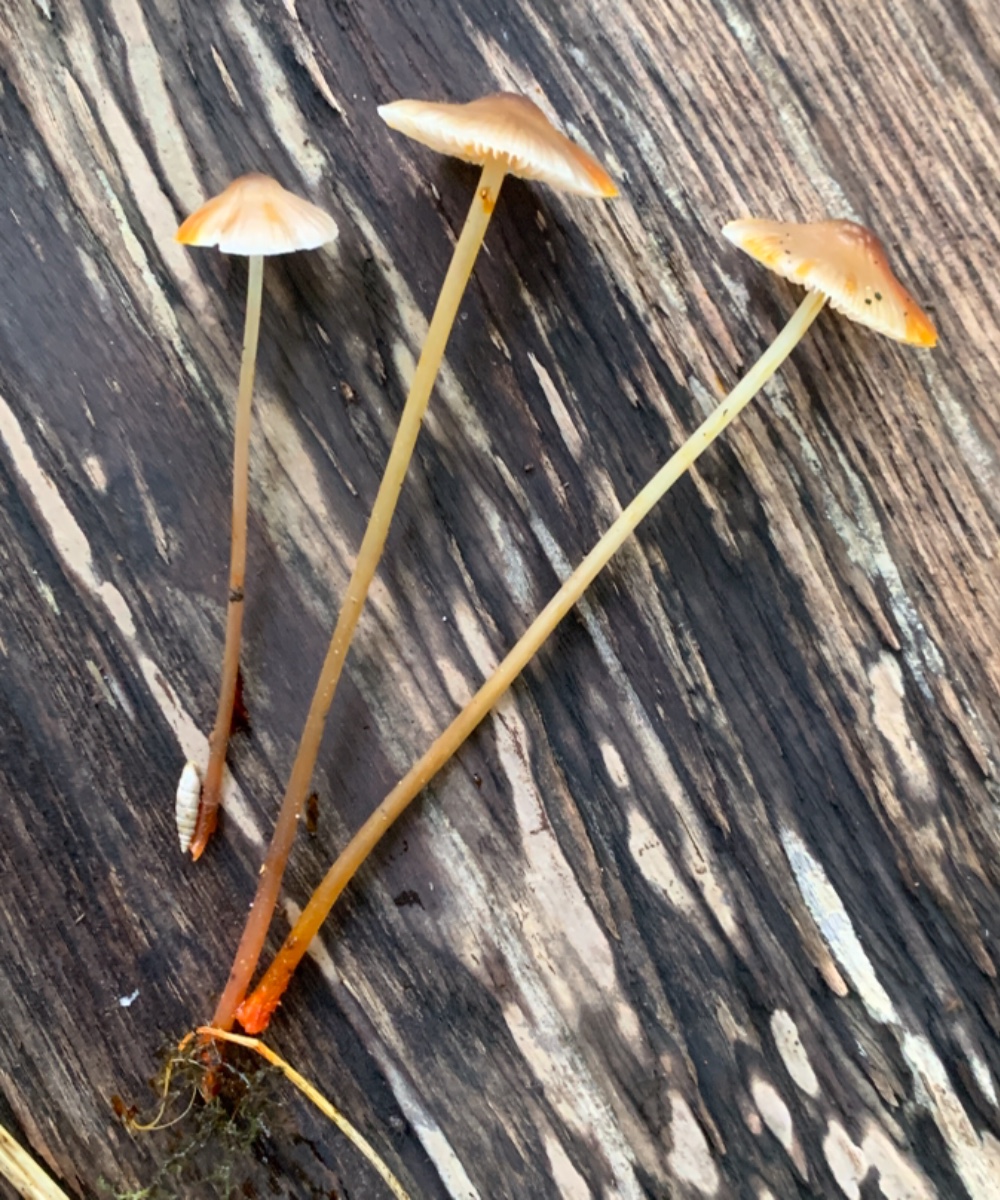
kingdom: Fungi
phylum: Basidiomycota
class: Agaricomycetes
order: Agaricales
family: Mycenaceae
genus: Mycena
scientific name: Mycena crocata
